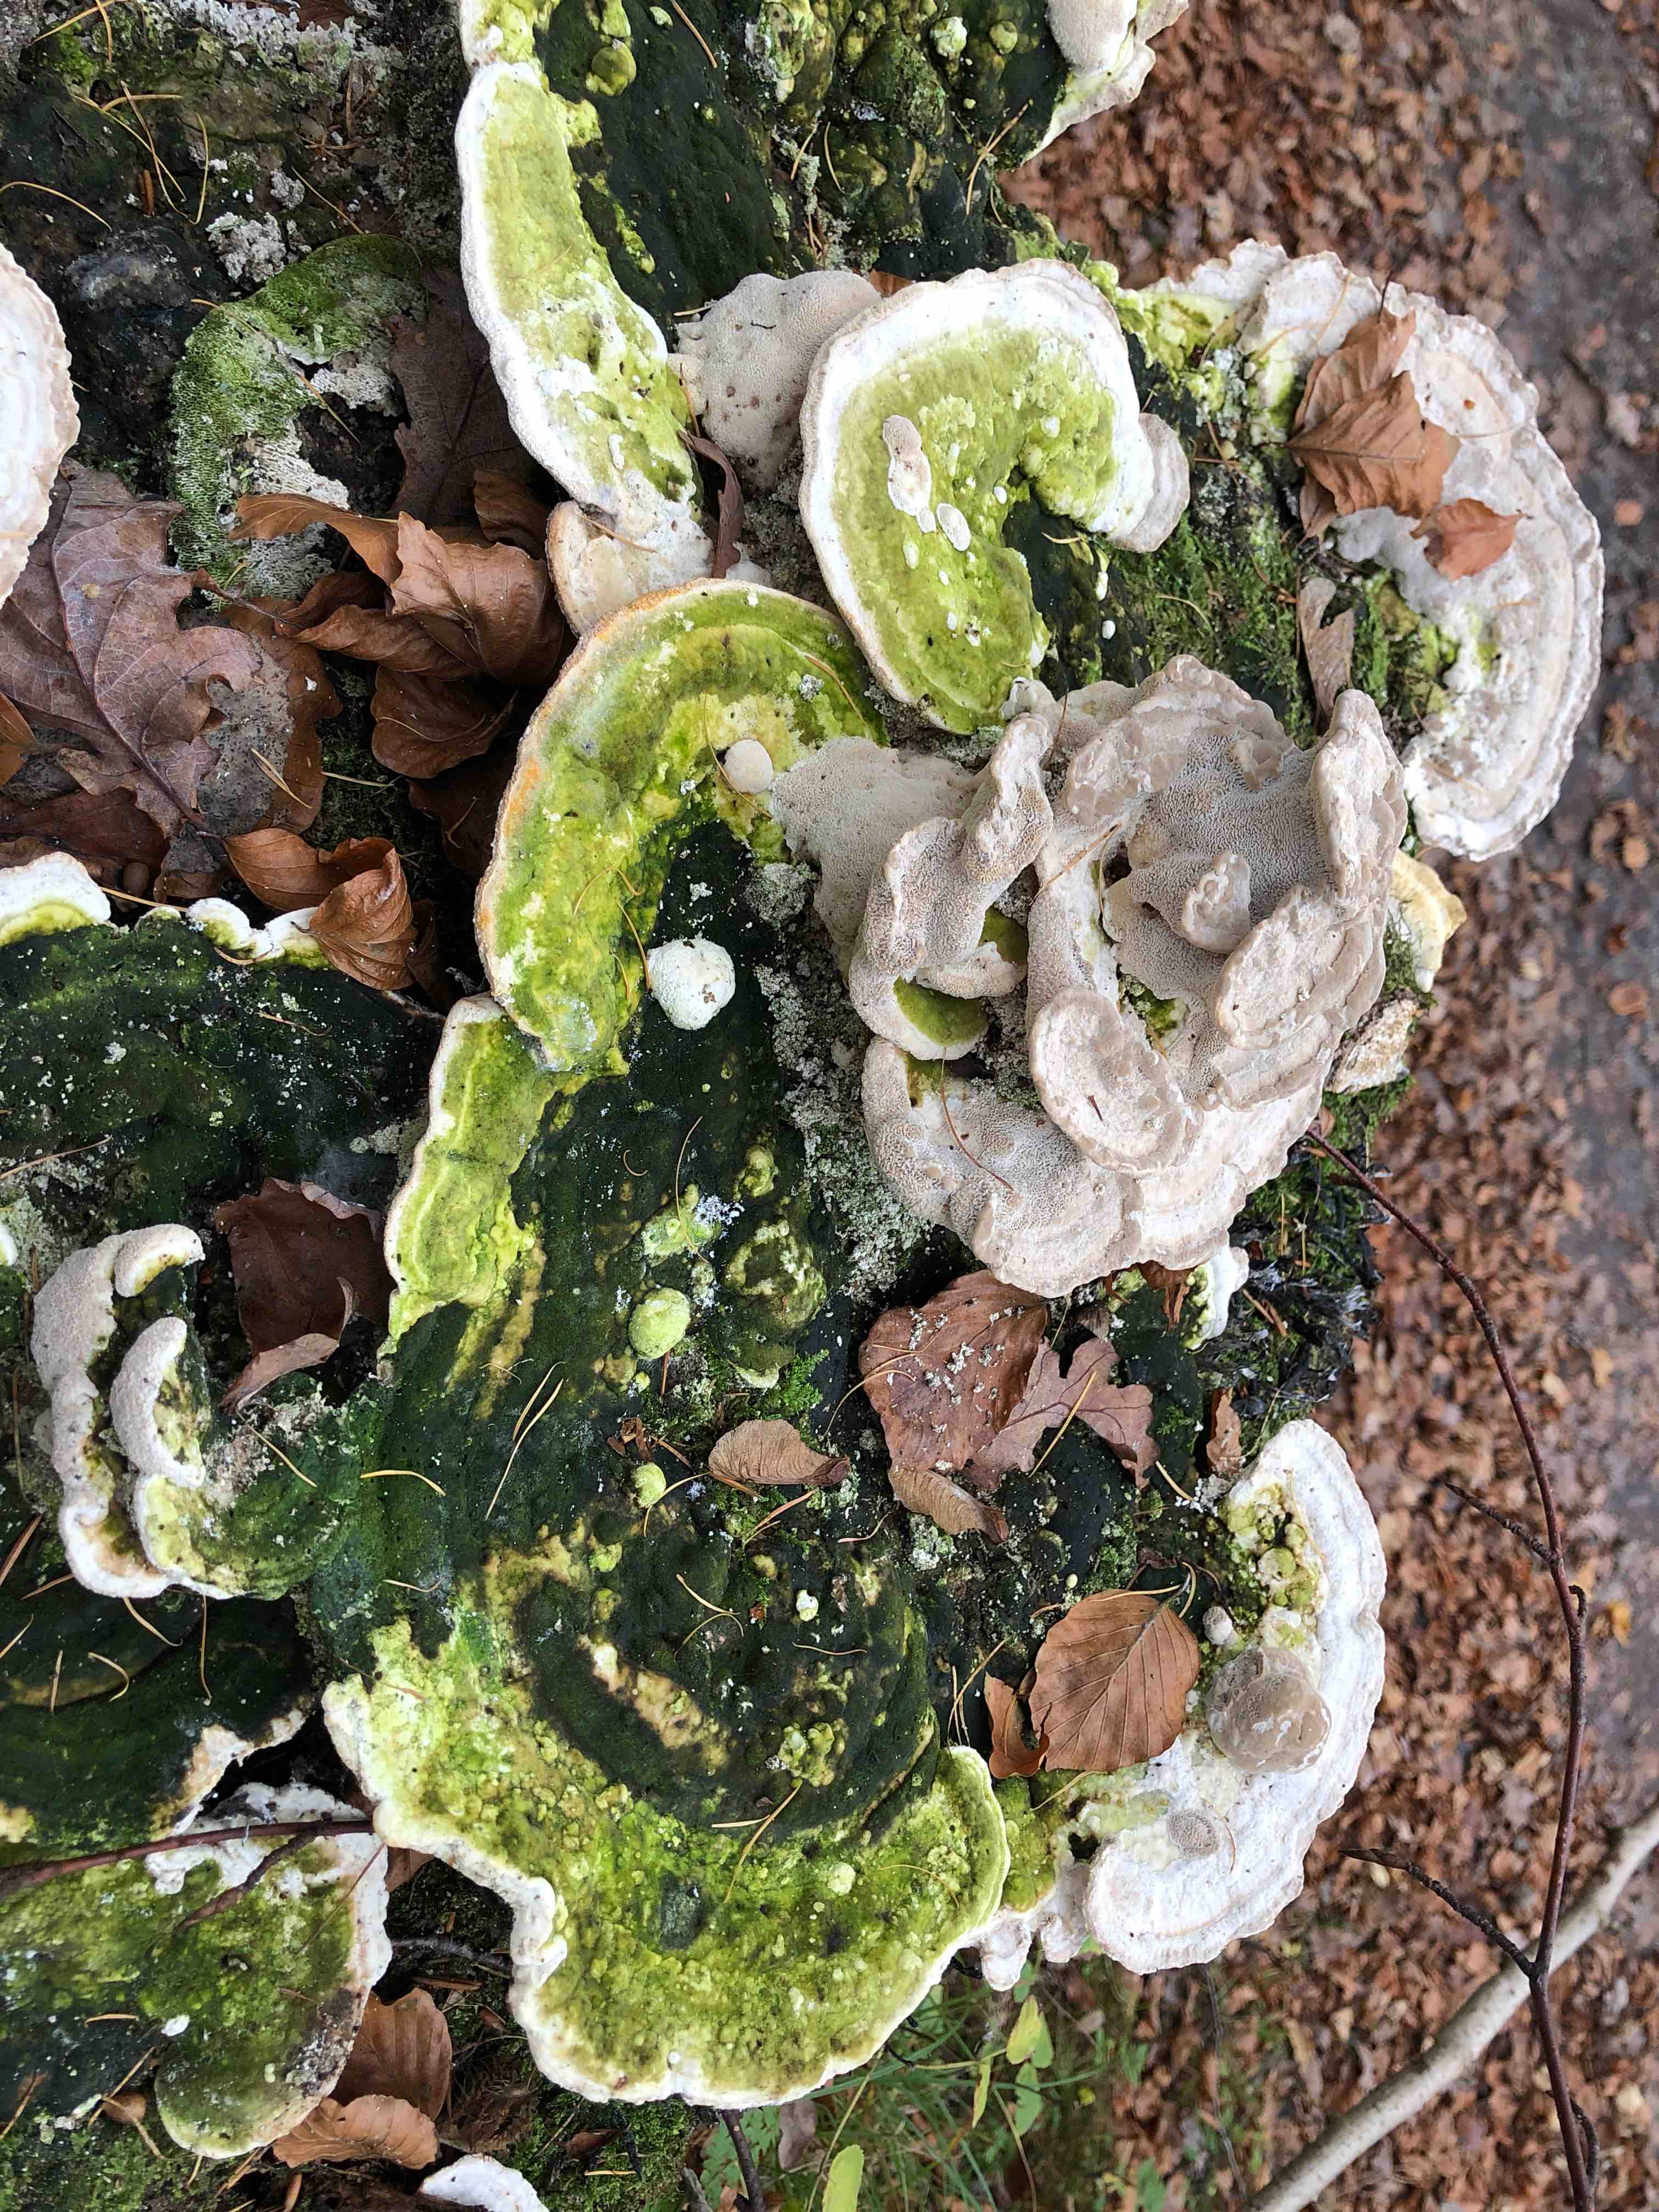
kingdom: Fungi
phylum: Basidiomycota
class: Agaricomycetes
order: Polyporales
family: Polyporaceae
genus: Trametes
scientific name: Trametes gibbosa
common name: puklet læderporesvamp
